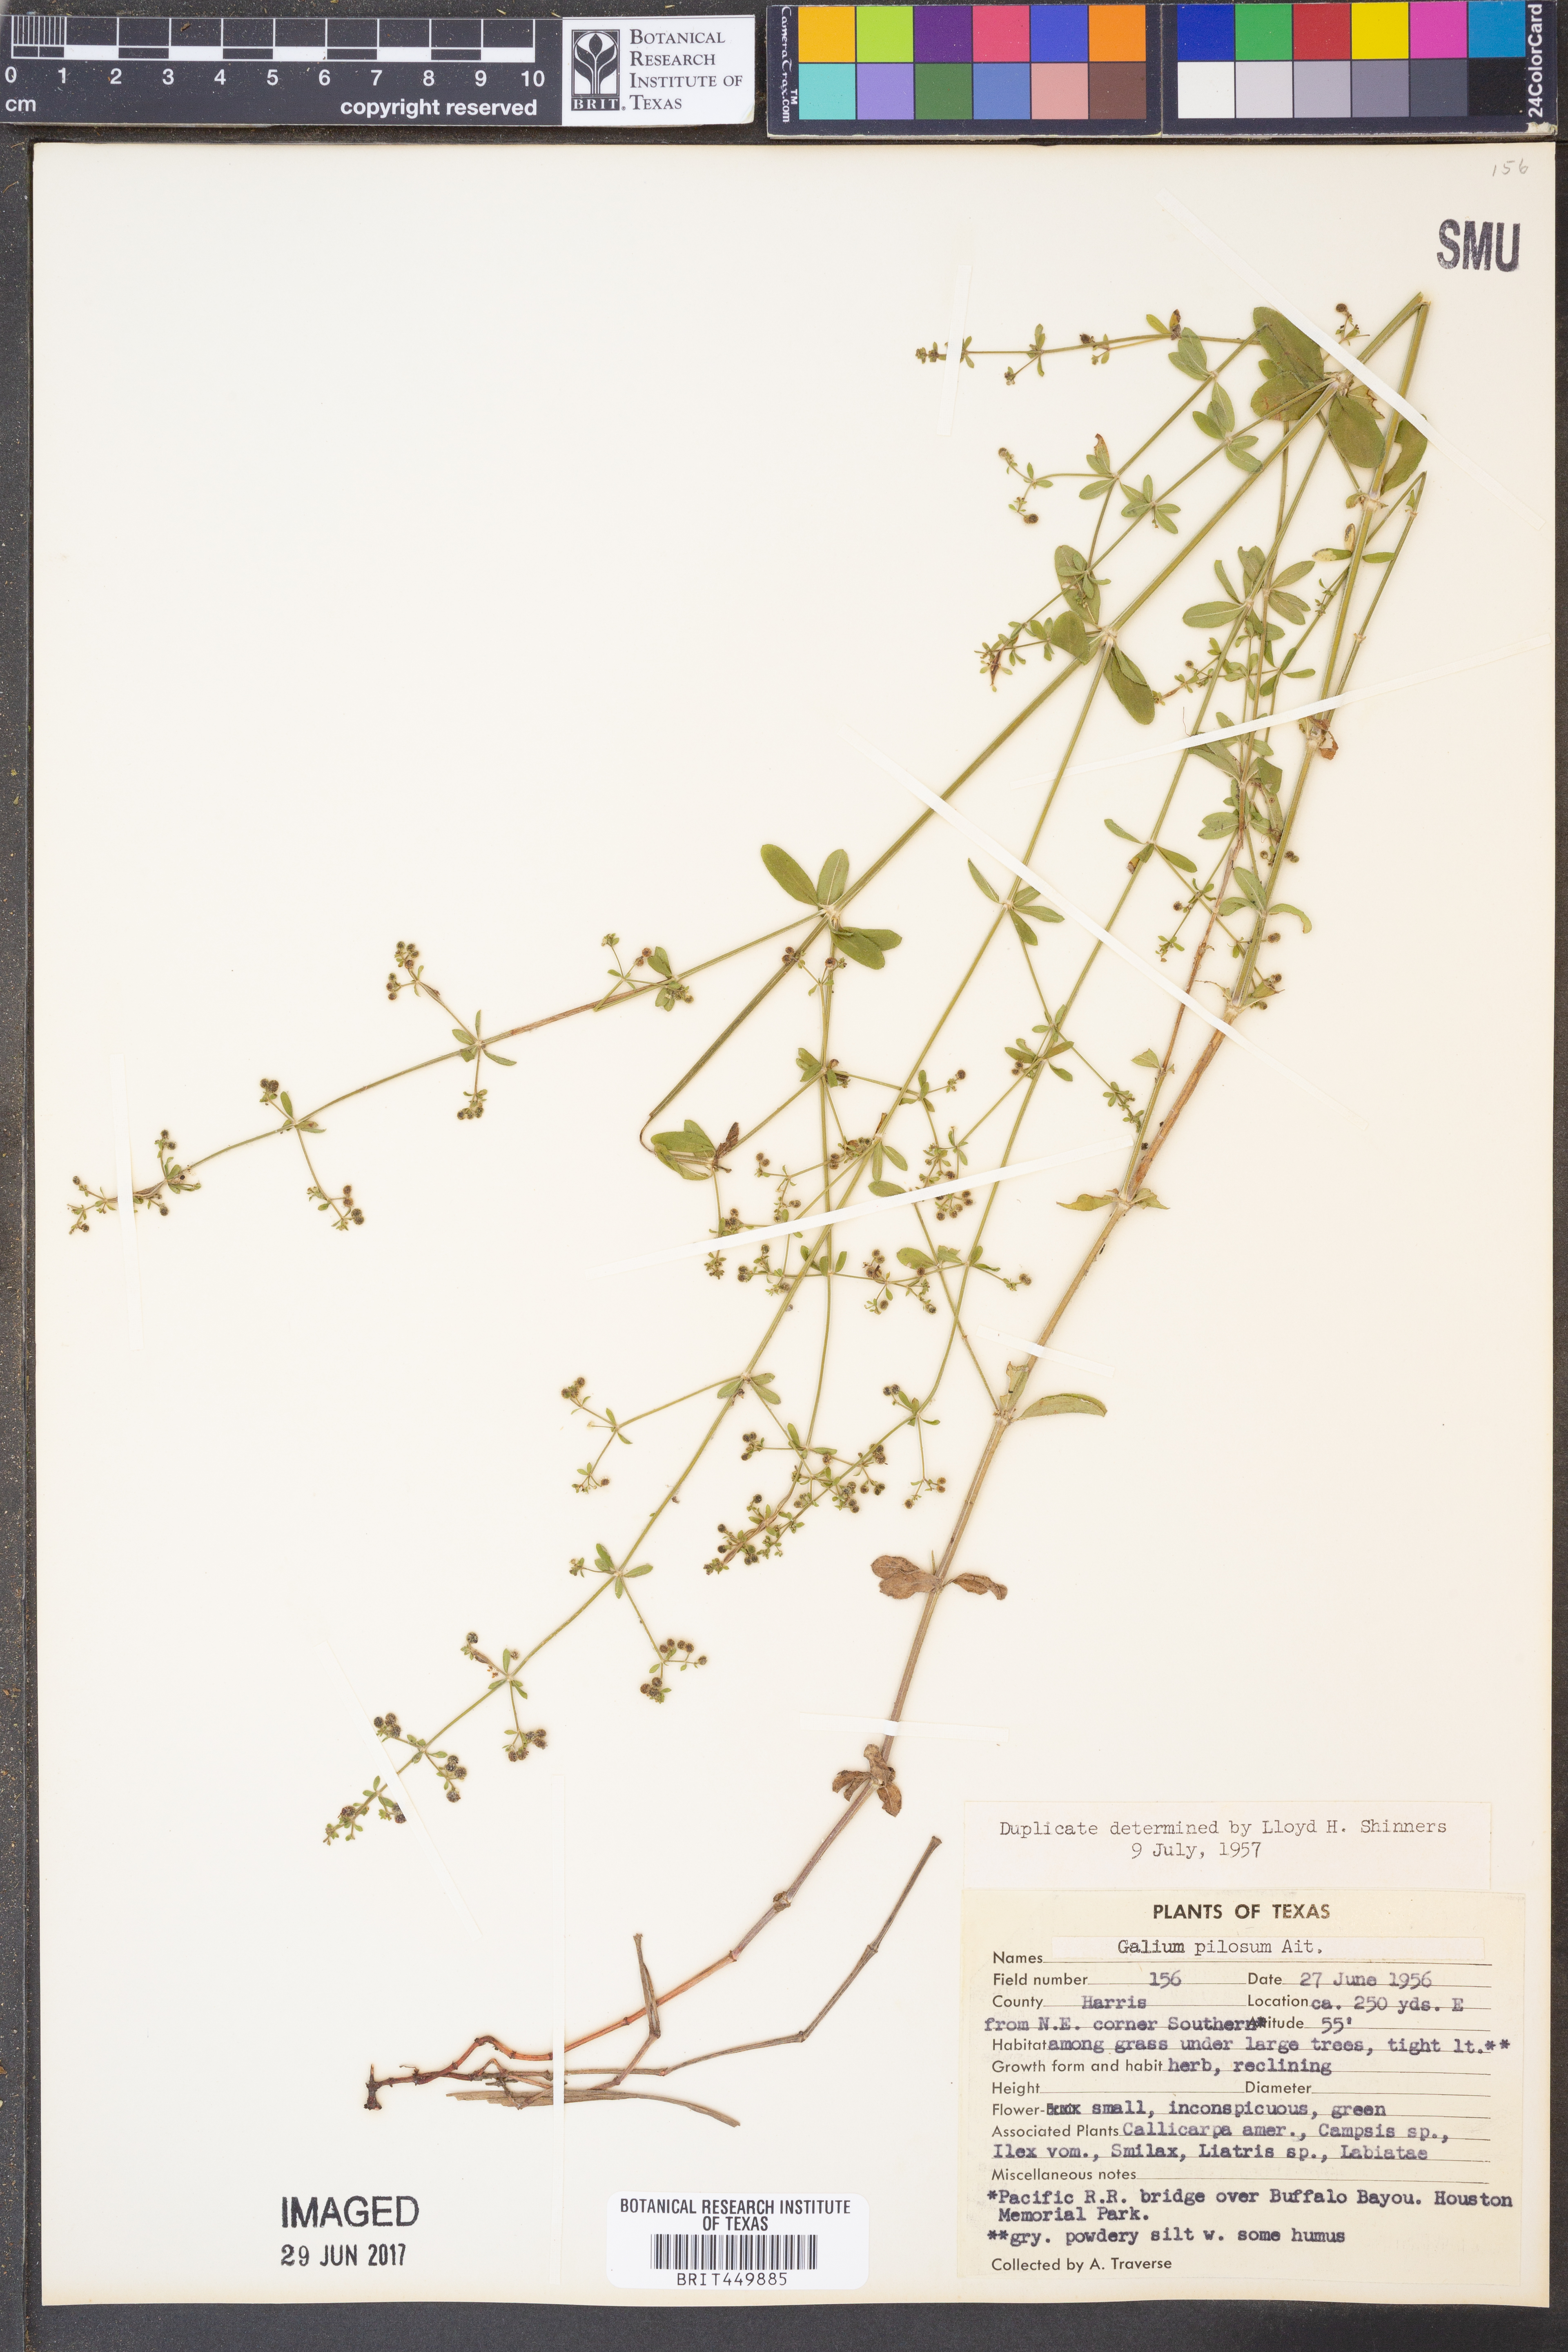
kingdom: Plantae
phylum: Tracheophyta
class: Magnoliopsida
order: Gentianales
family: Rubiaceae
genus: Galium
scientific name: Galium pilosum
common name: Hairy bedstraw
